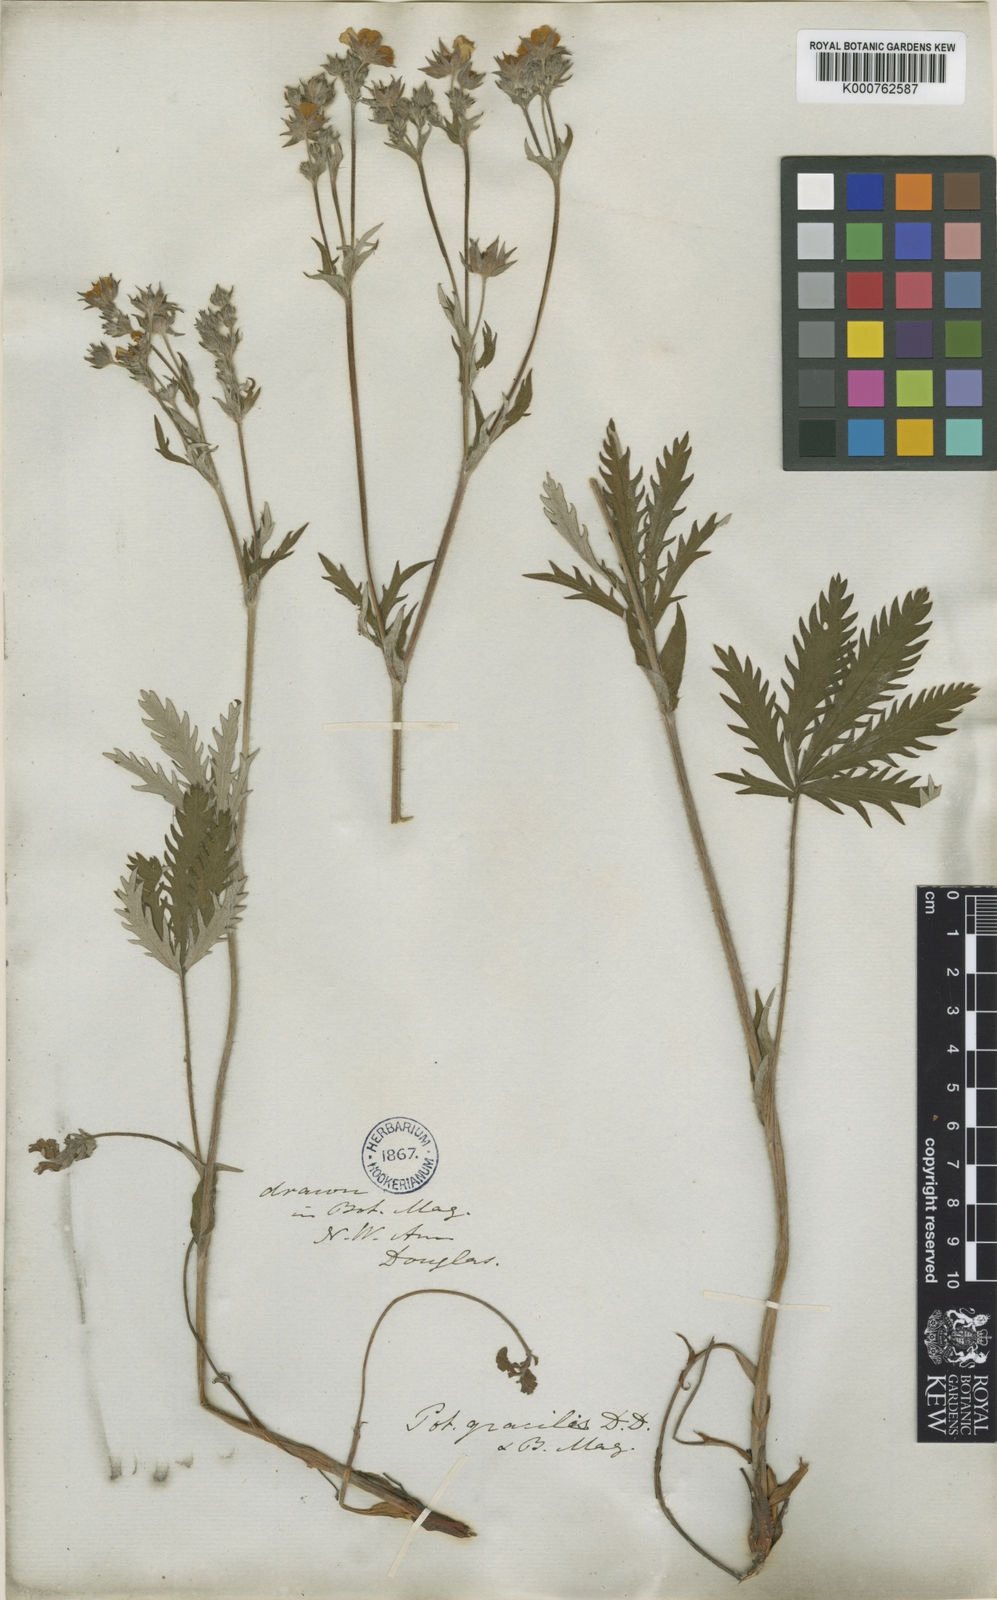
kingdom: Plantae
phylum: Tracheophyta
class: Magnoliopsida
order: Rosales
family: Rosaceae
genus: Potentilla
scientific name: Potentilla gracilis
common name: Graceful cinquefoil
